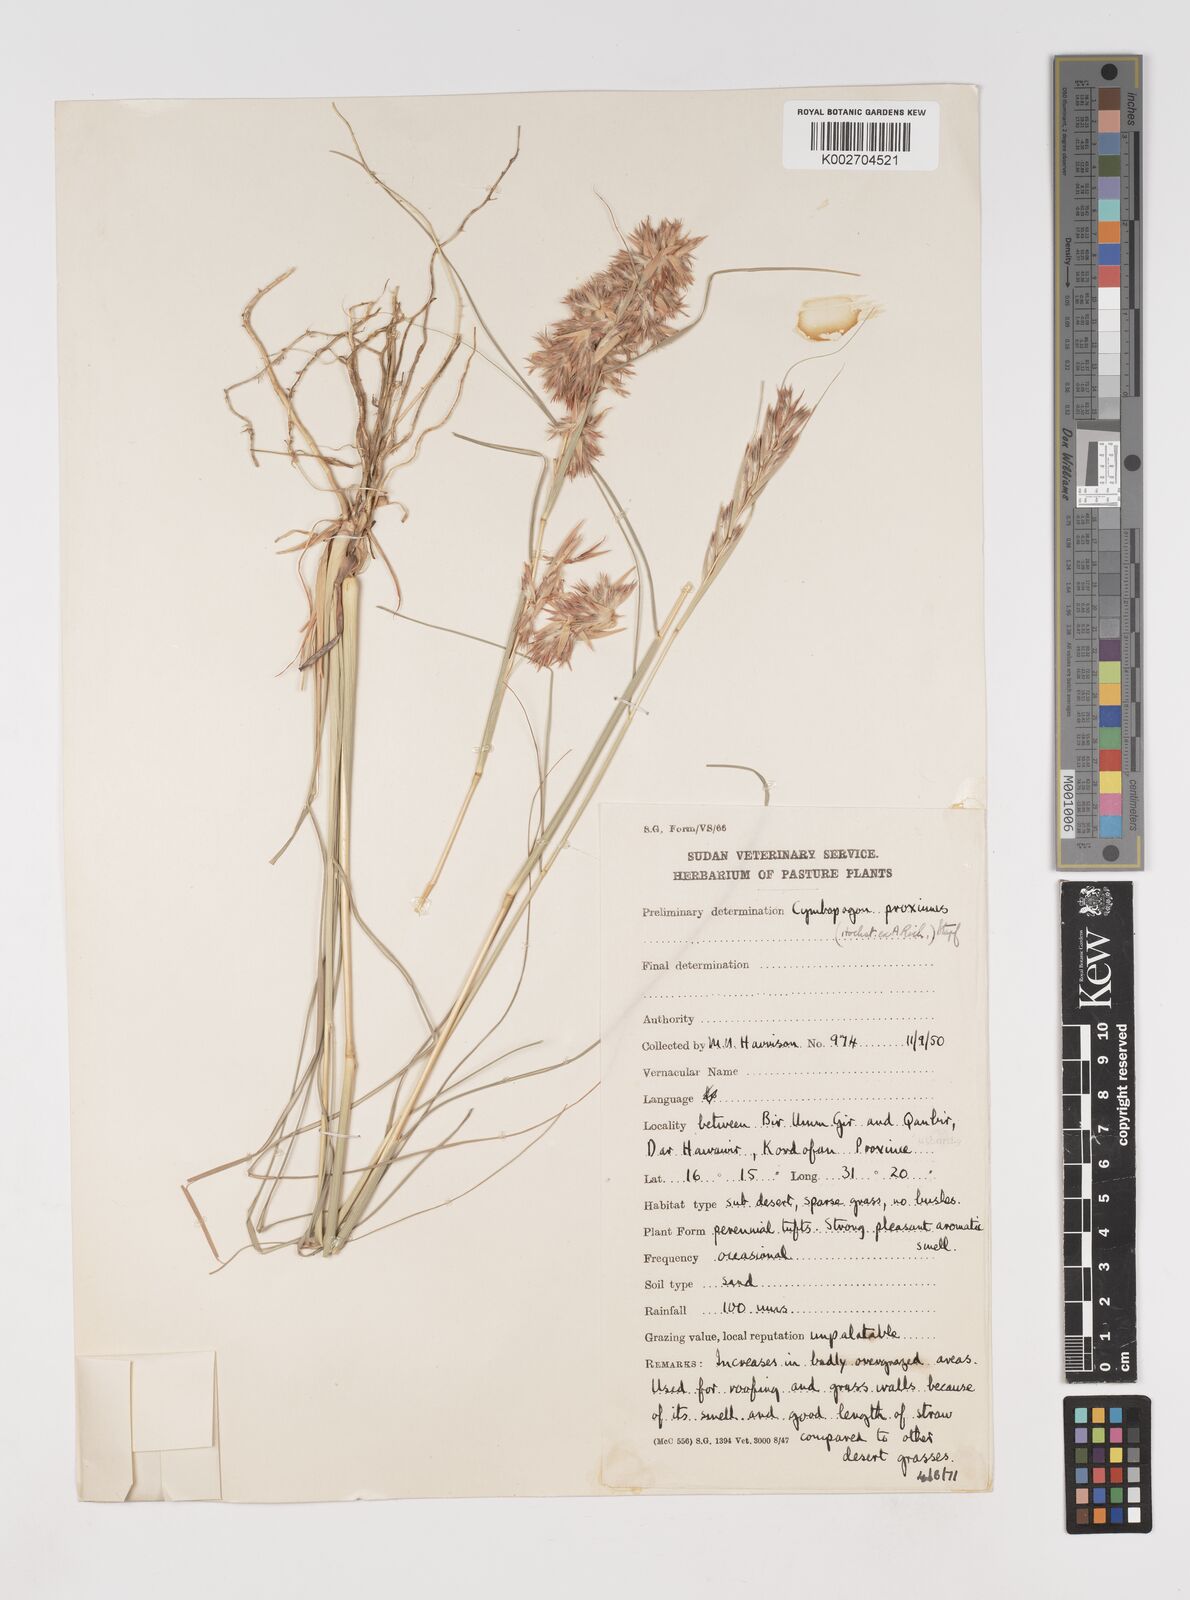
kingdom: Plantae
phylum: Tracheophyta
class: Liliopsida
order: Poales
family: Poaceae
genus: Cymbopogon
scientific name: Cymbopogon schoenanthus
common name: Geranium grass
